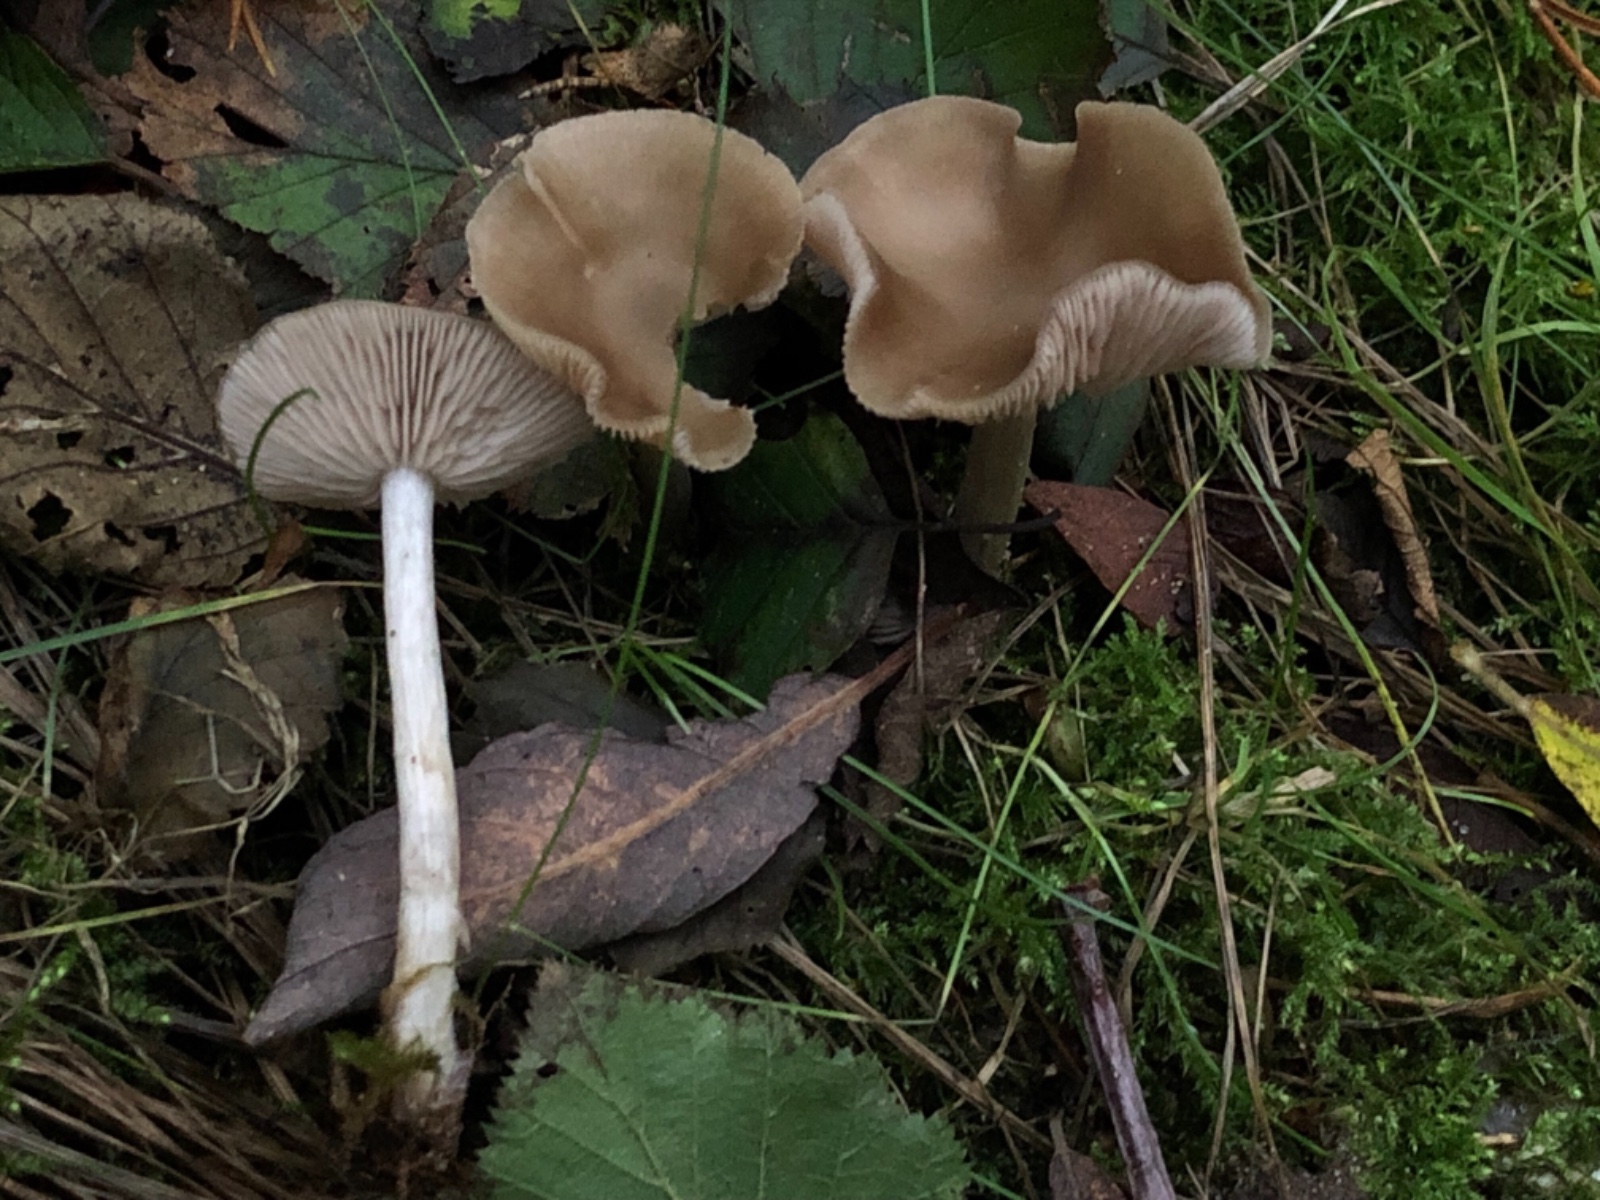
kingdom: Fungi
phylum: Basidiomycota
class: Agaricomycetes
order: Agaricales
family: Entolomataceae
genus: Entoloma
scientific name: Entoloma
